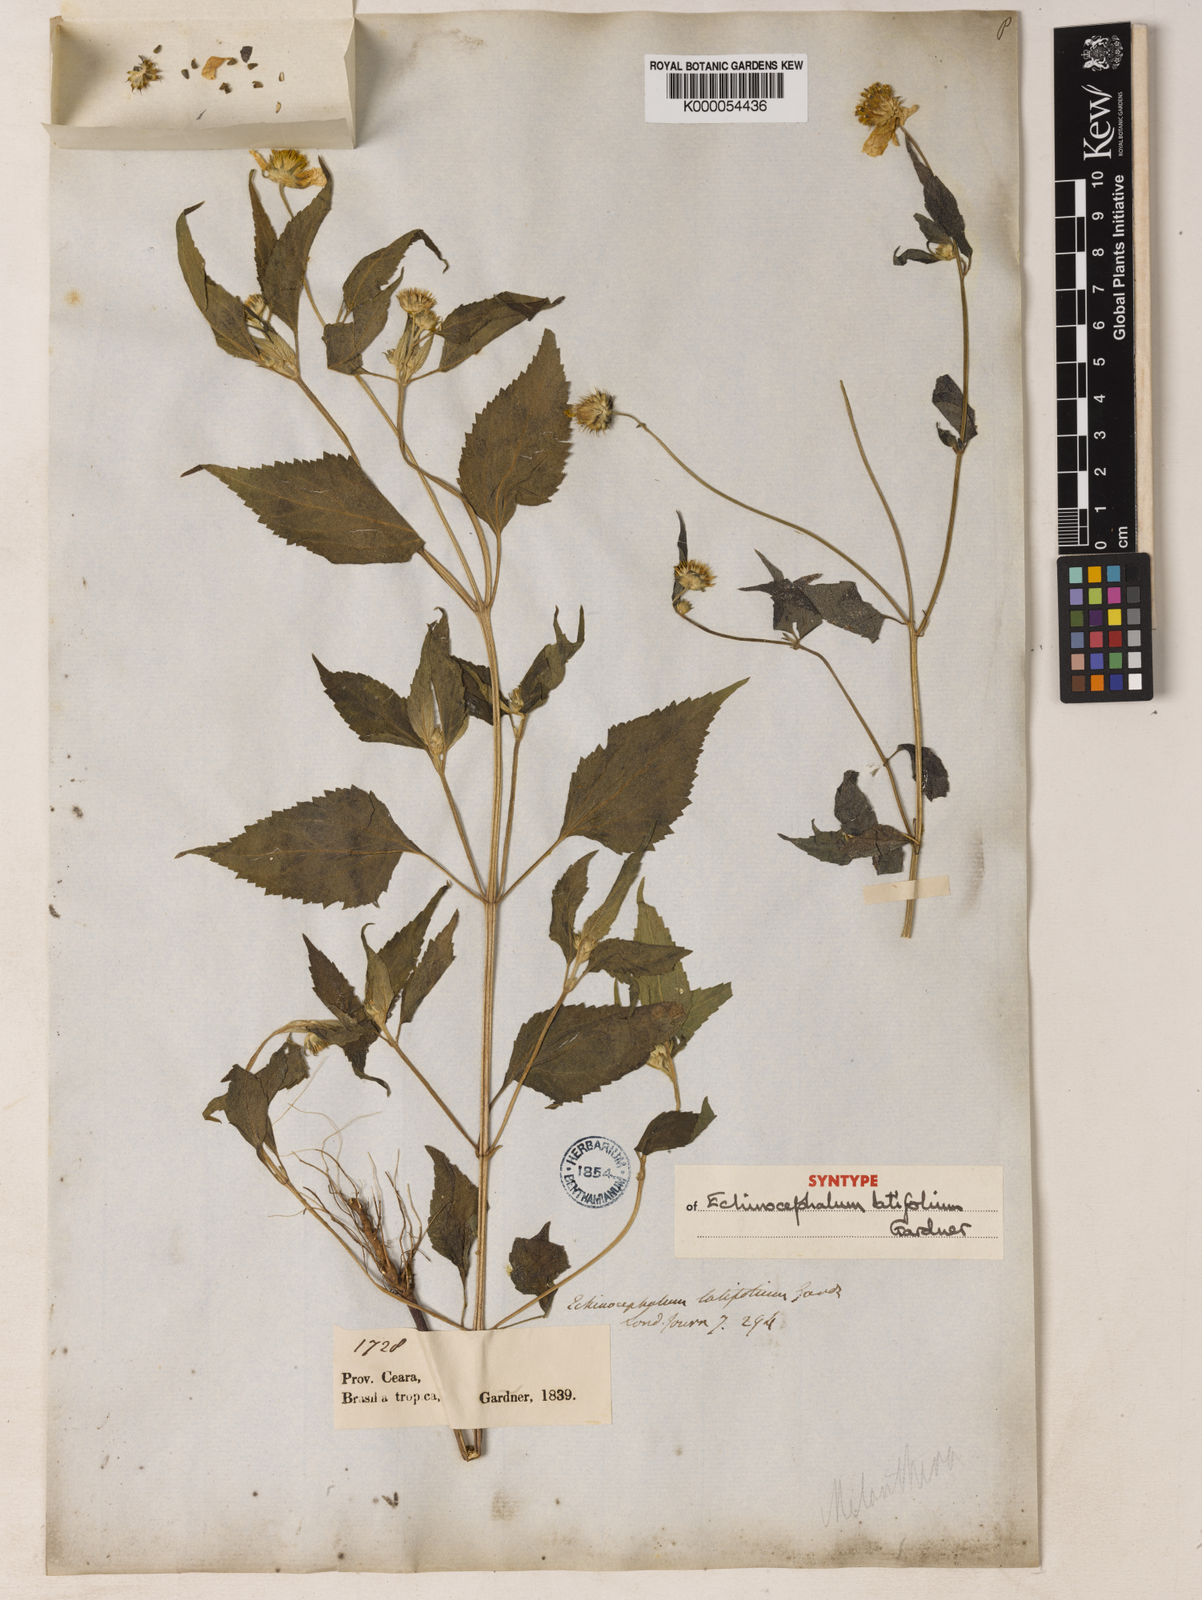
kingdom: Plantae
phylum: Tracheophyta
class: Magnoliopsida
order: Asterales
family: Asteraceae
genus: Echinocephalum
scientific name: Echinocephalum latifolium
